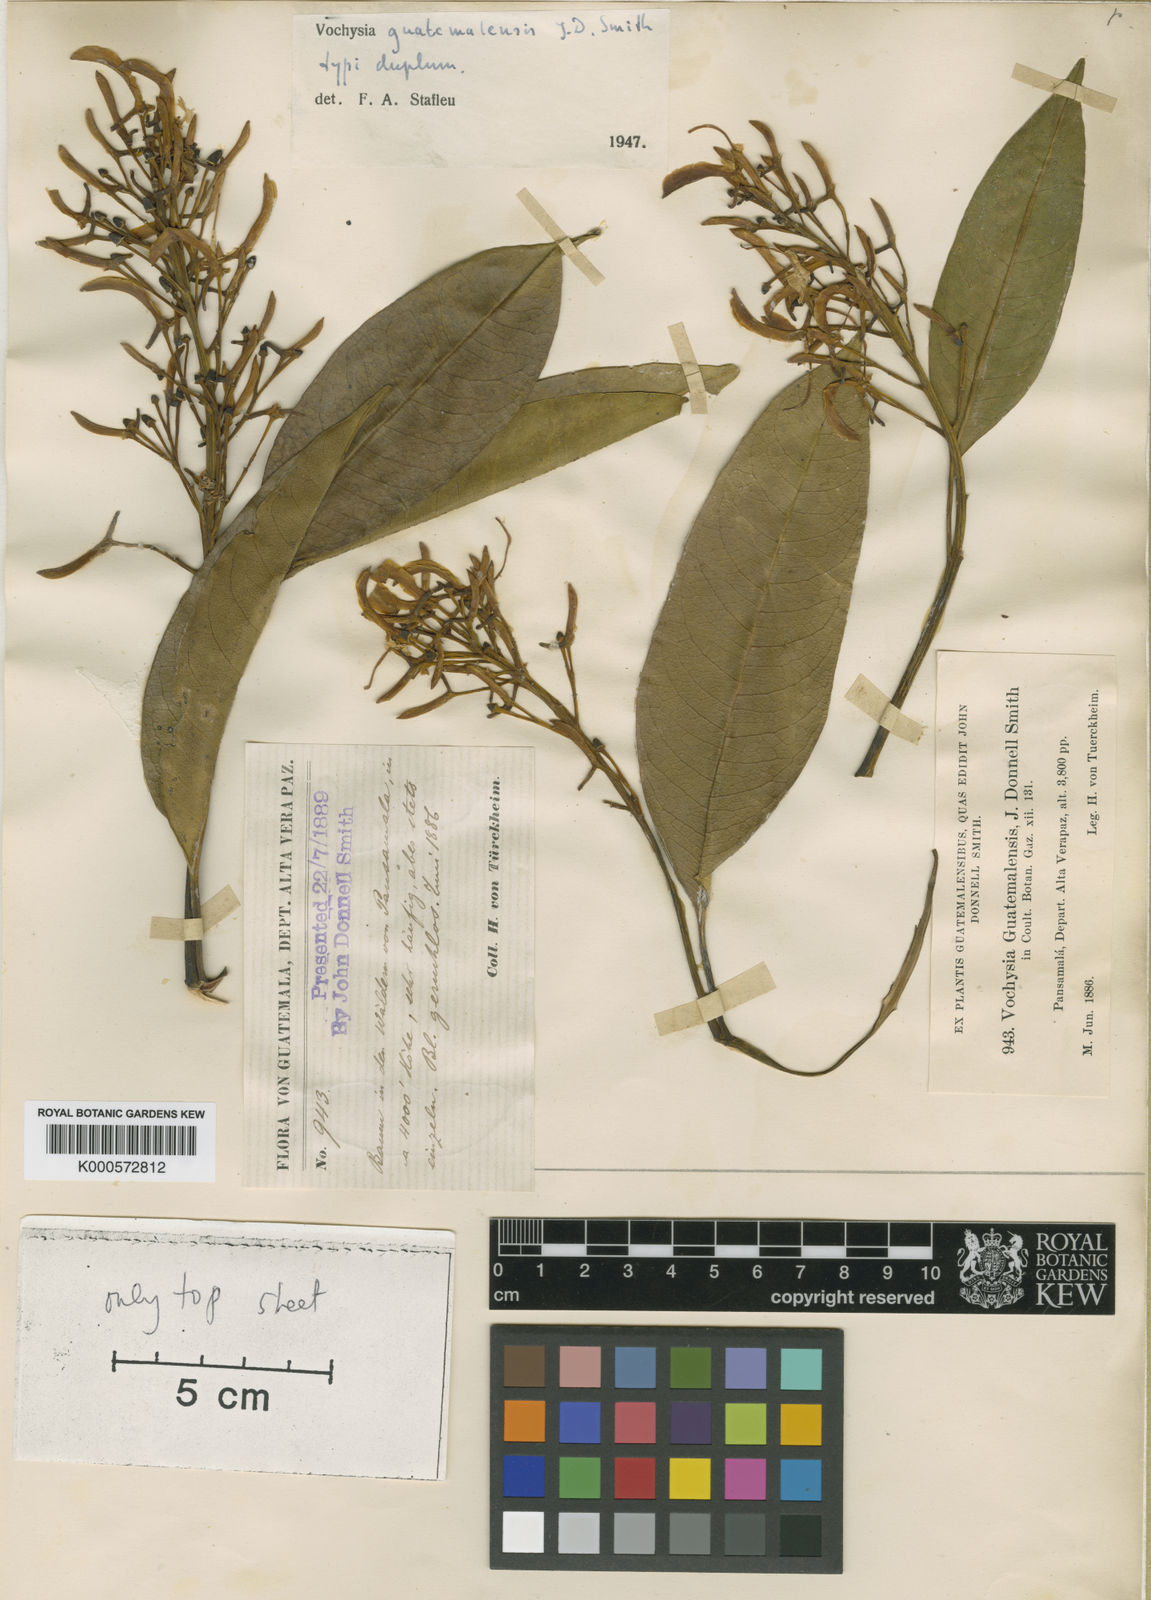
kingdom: Plantae
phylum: Tracheophyta
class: Magnoliopsida
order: Myrtales
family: Vochysiaceae
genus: Vochysia
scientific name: Vochysia guatemalensis
